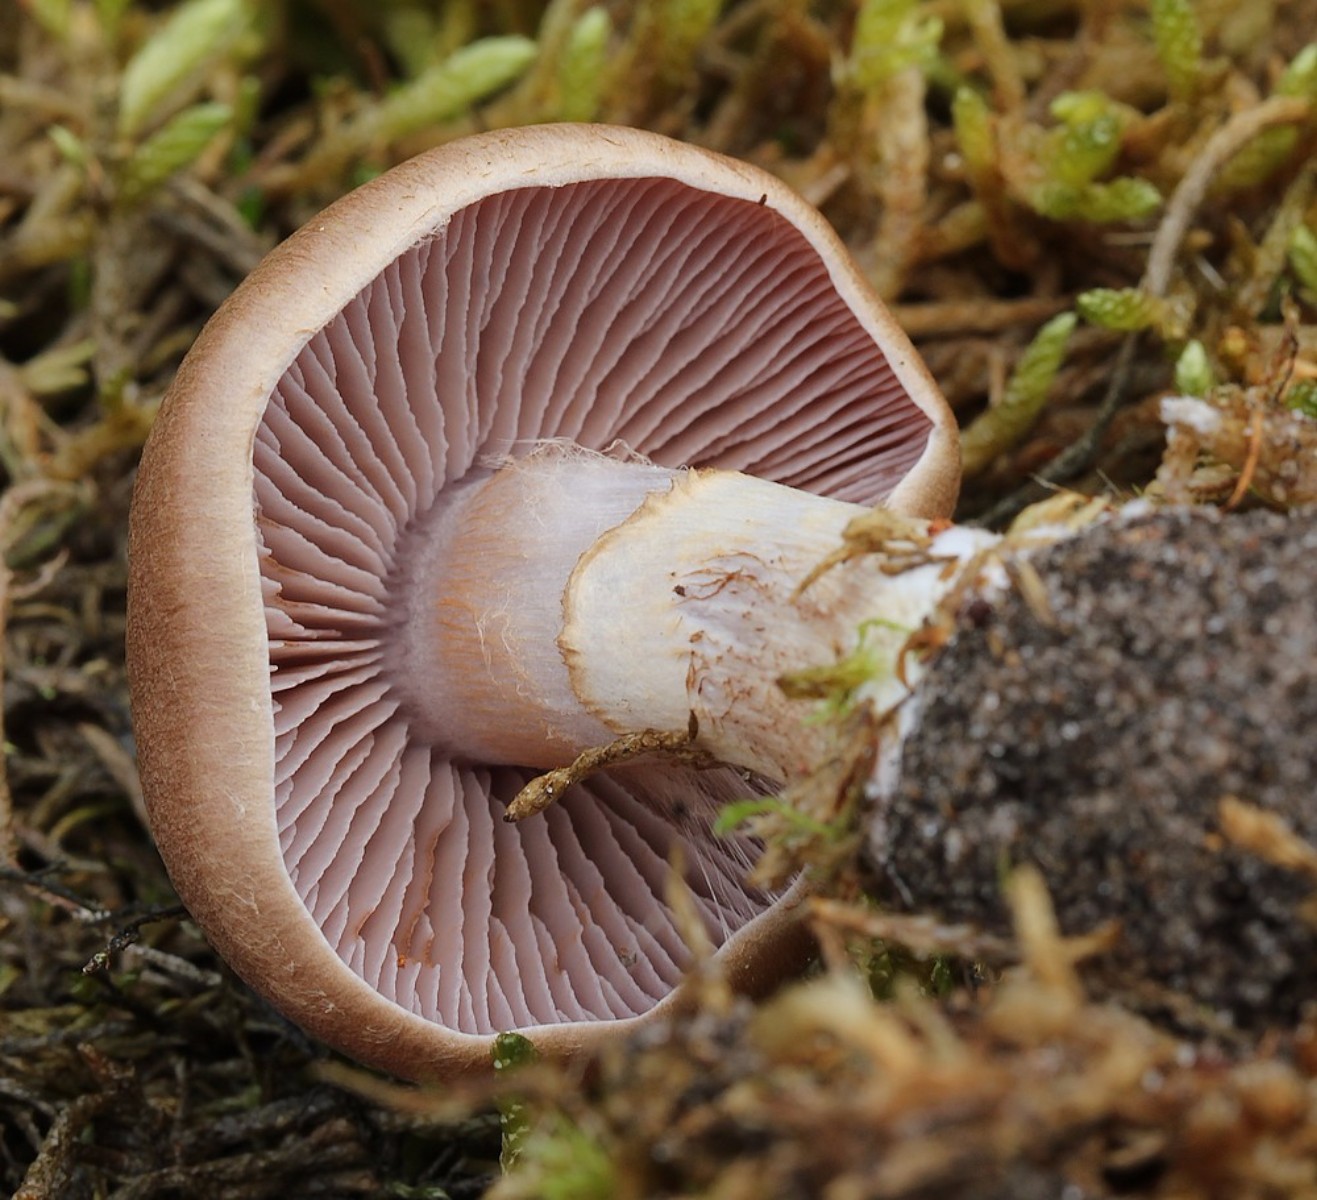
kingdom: Fungi
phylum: Basidiomycota
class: Agaricomycetes
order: Agaricales
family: Cortinariaceae
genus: Cortinarius
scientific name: Cortinarius caninus
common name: gran-slørhat
